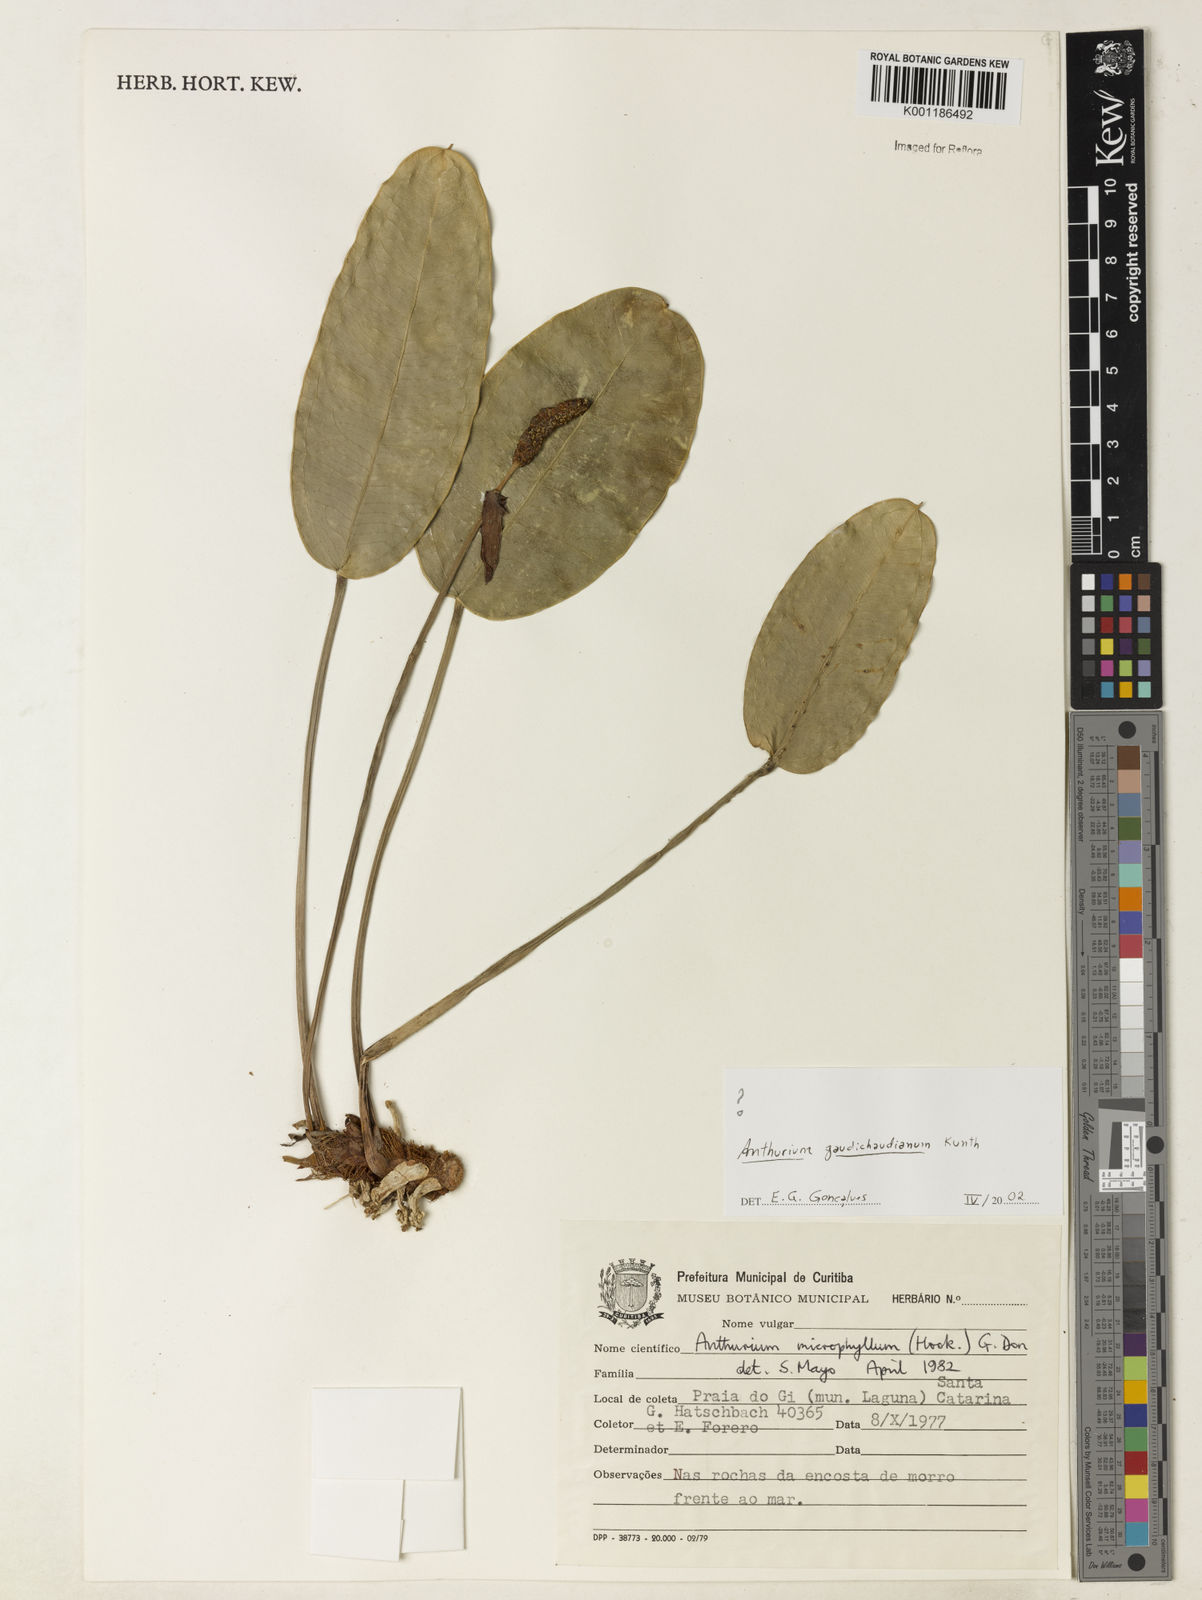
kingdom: Plantae
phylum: Tracheophyta
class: Liliopsida
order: Alismatales
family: Araceae
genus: Anthurium
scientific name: Anthurium gaudichaudianum
